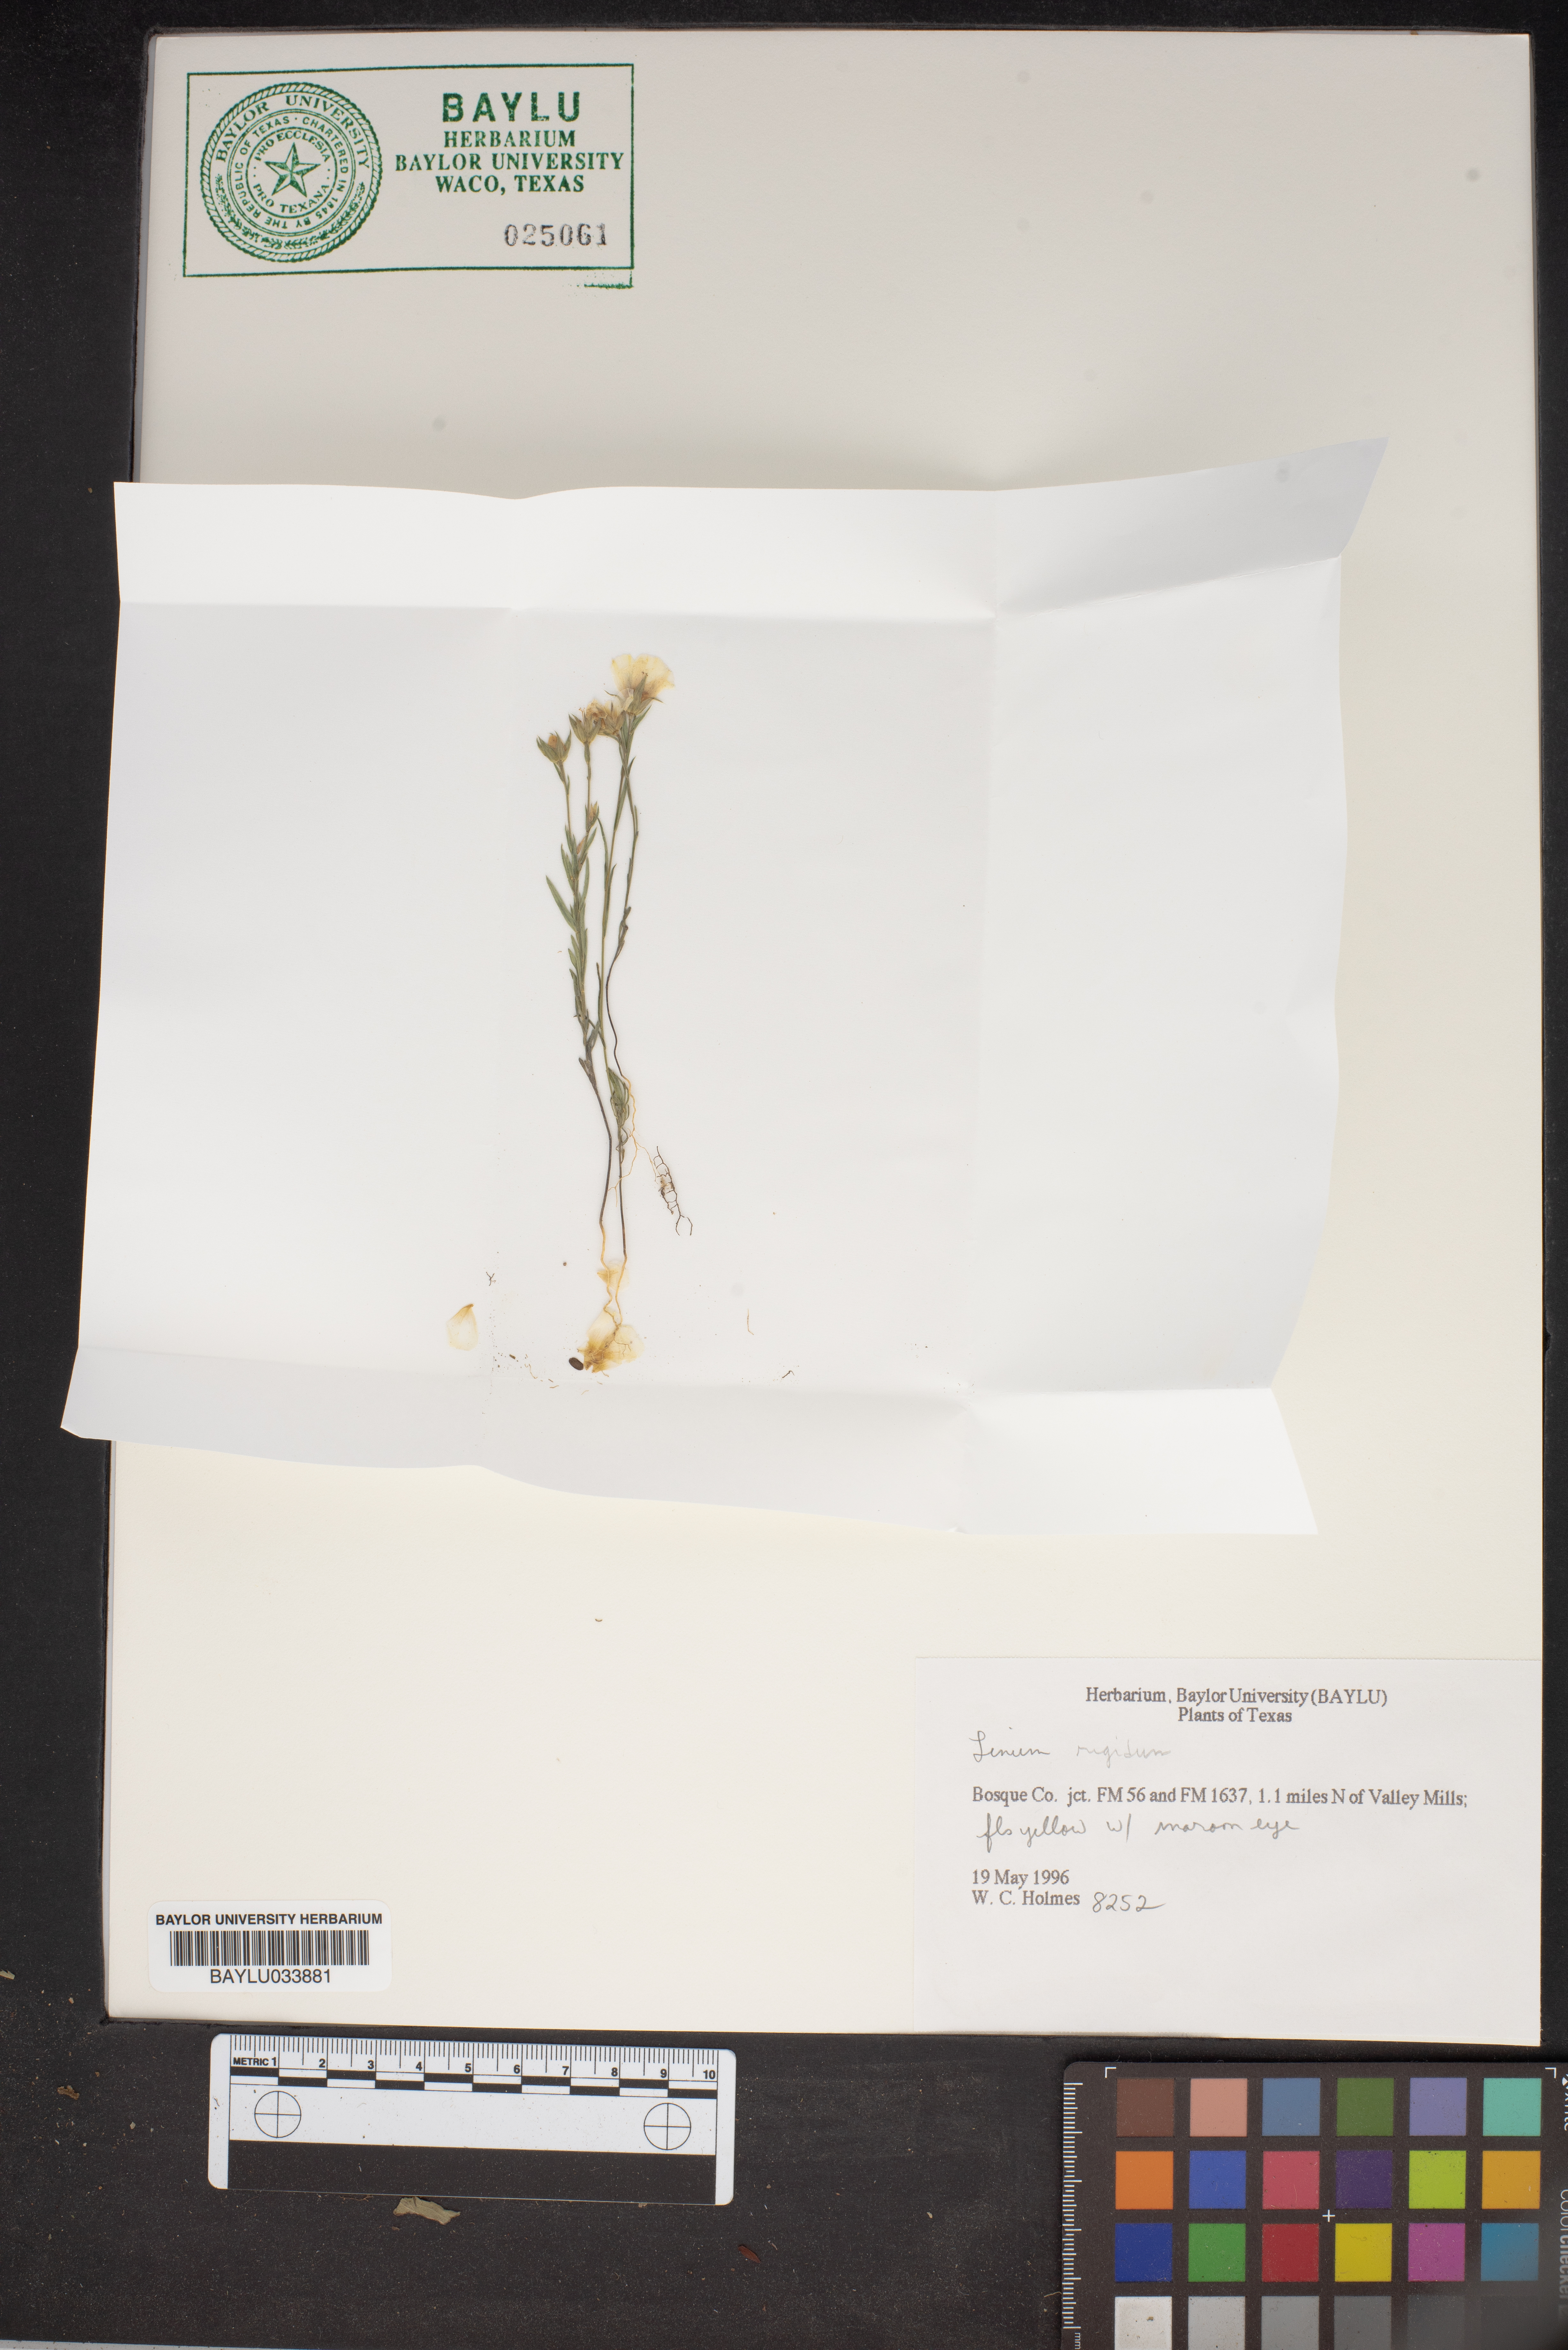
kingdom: Plantae
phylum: Tracheophyta
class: Magnoliopsida
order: Malpighiales
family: Linaceae
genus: Linum
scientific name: Linum rigidum
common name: Stiff-stem flax
